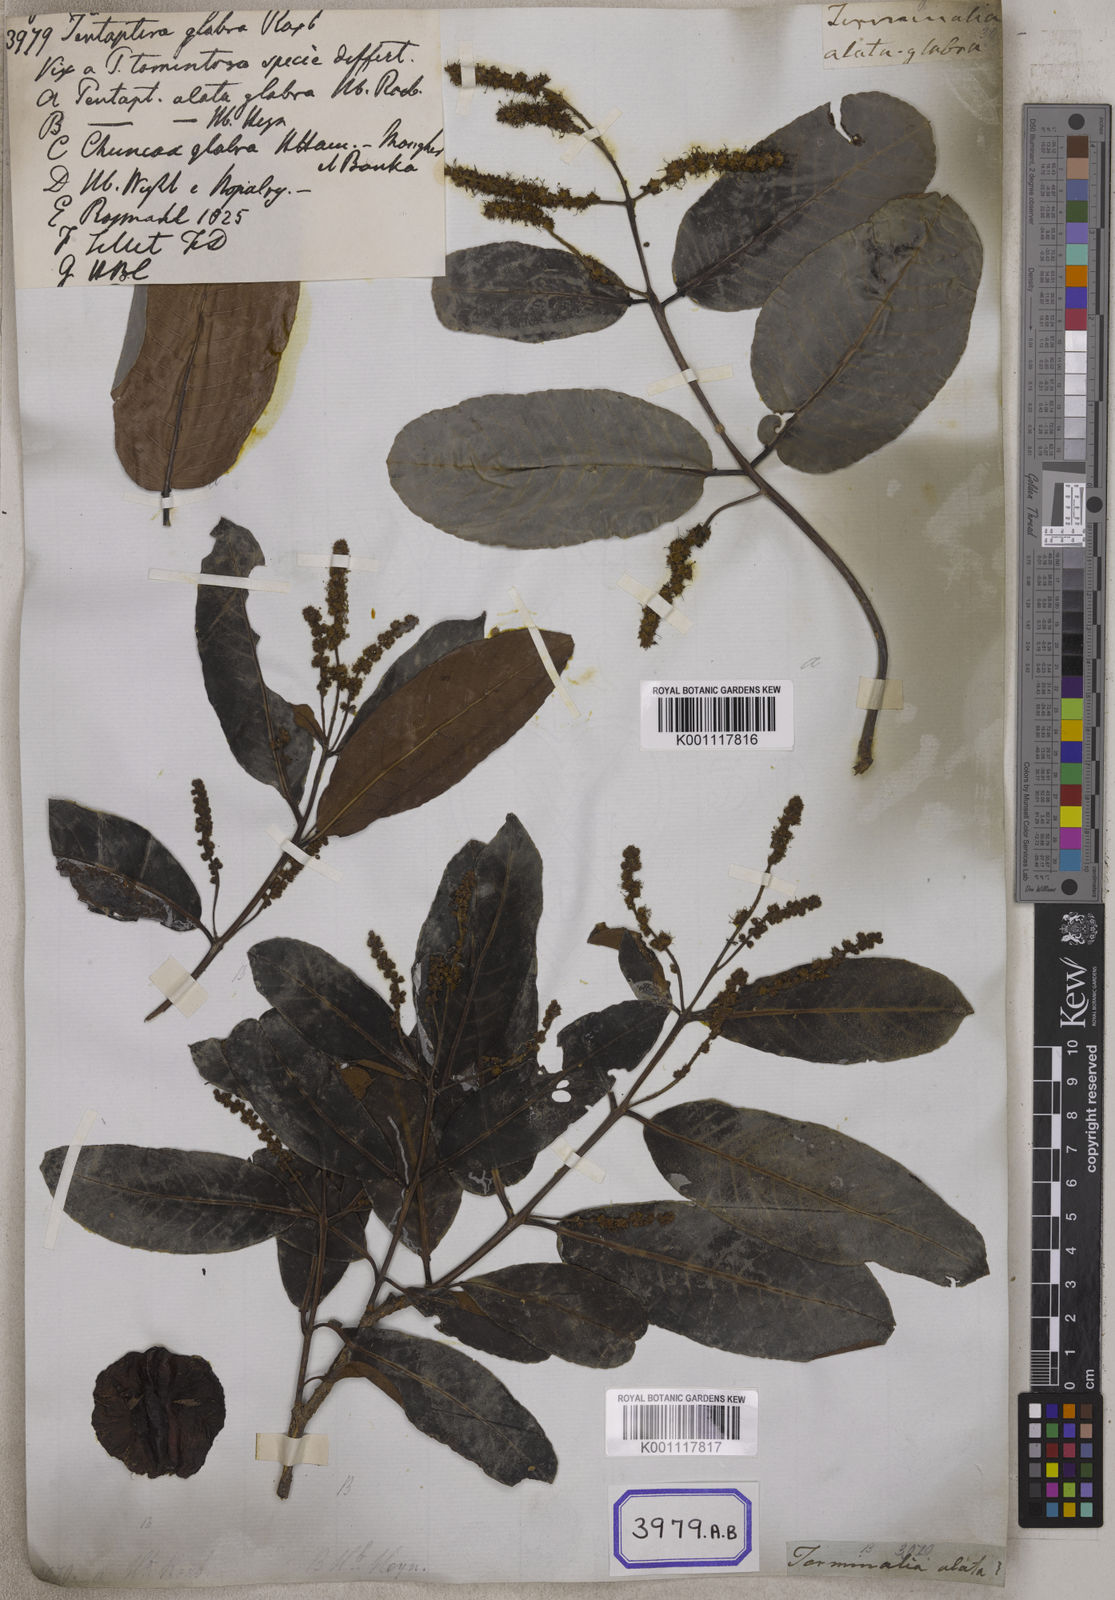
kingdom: Plantae
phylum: Tracheophyta
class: Magnoliopsida
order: Myrtales
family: Combretaceae
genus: Terminalia
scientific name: Terminalia arjuna
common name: Arjun
